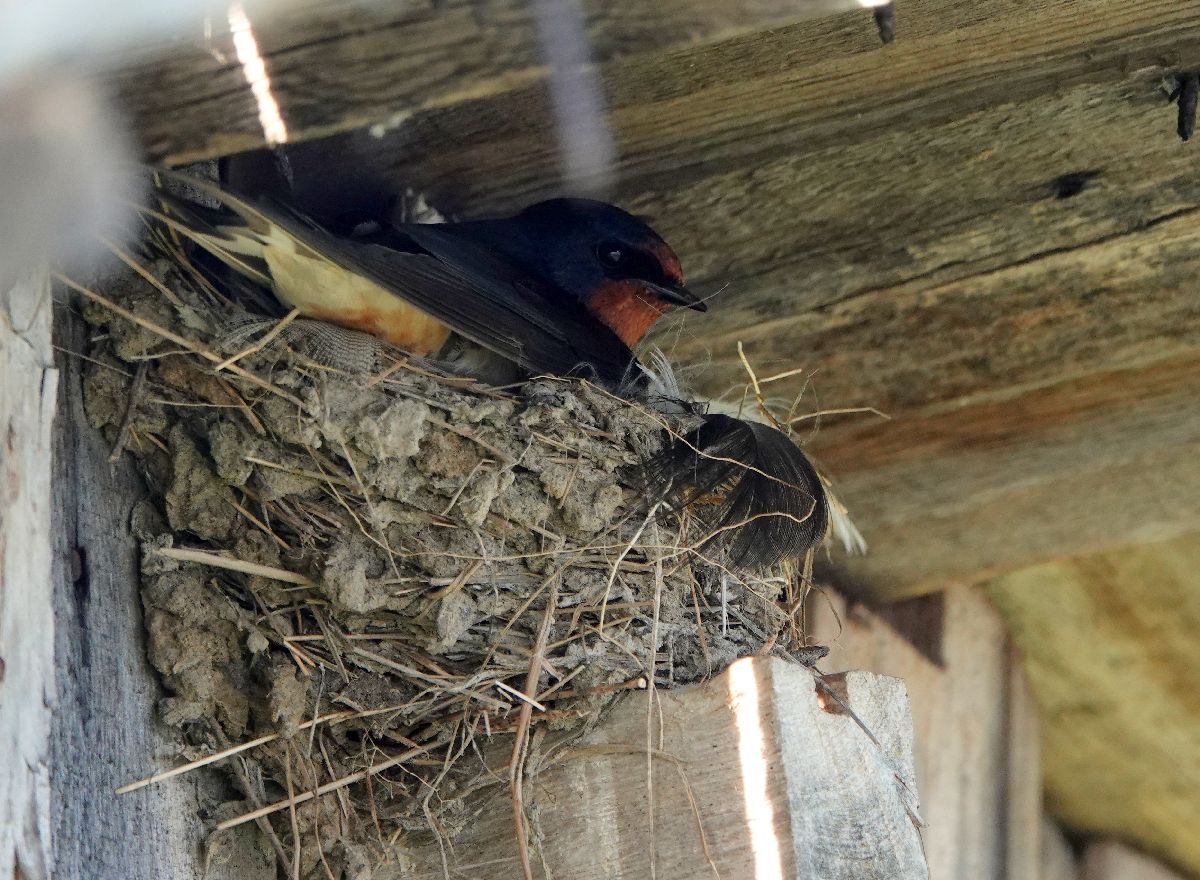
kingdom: Animalia
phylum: Chordata
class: Aves
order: Passeriformes
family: Hirundinidae
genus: Hirundo
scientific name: Hirundo rustica
